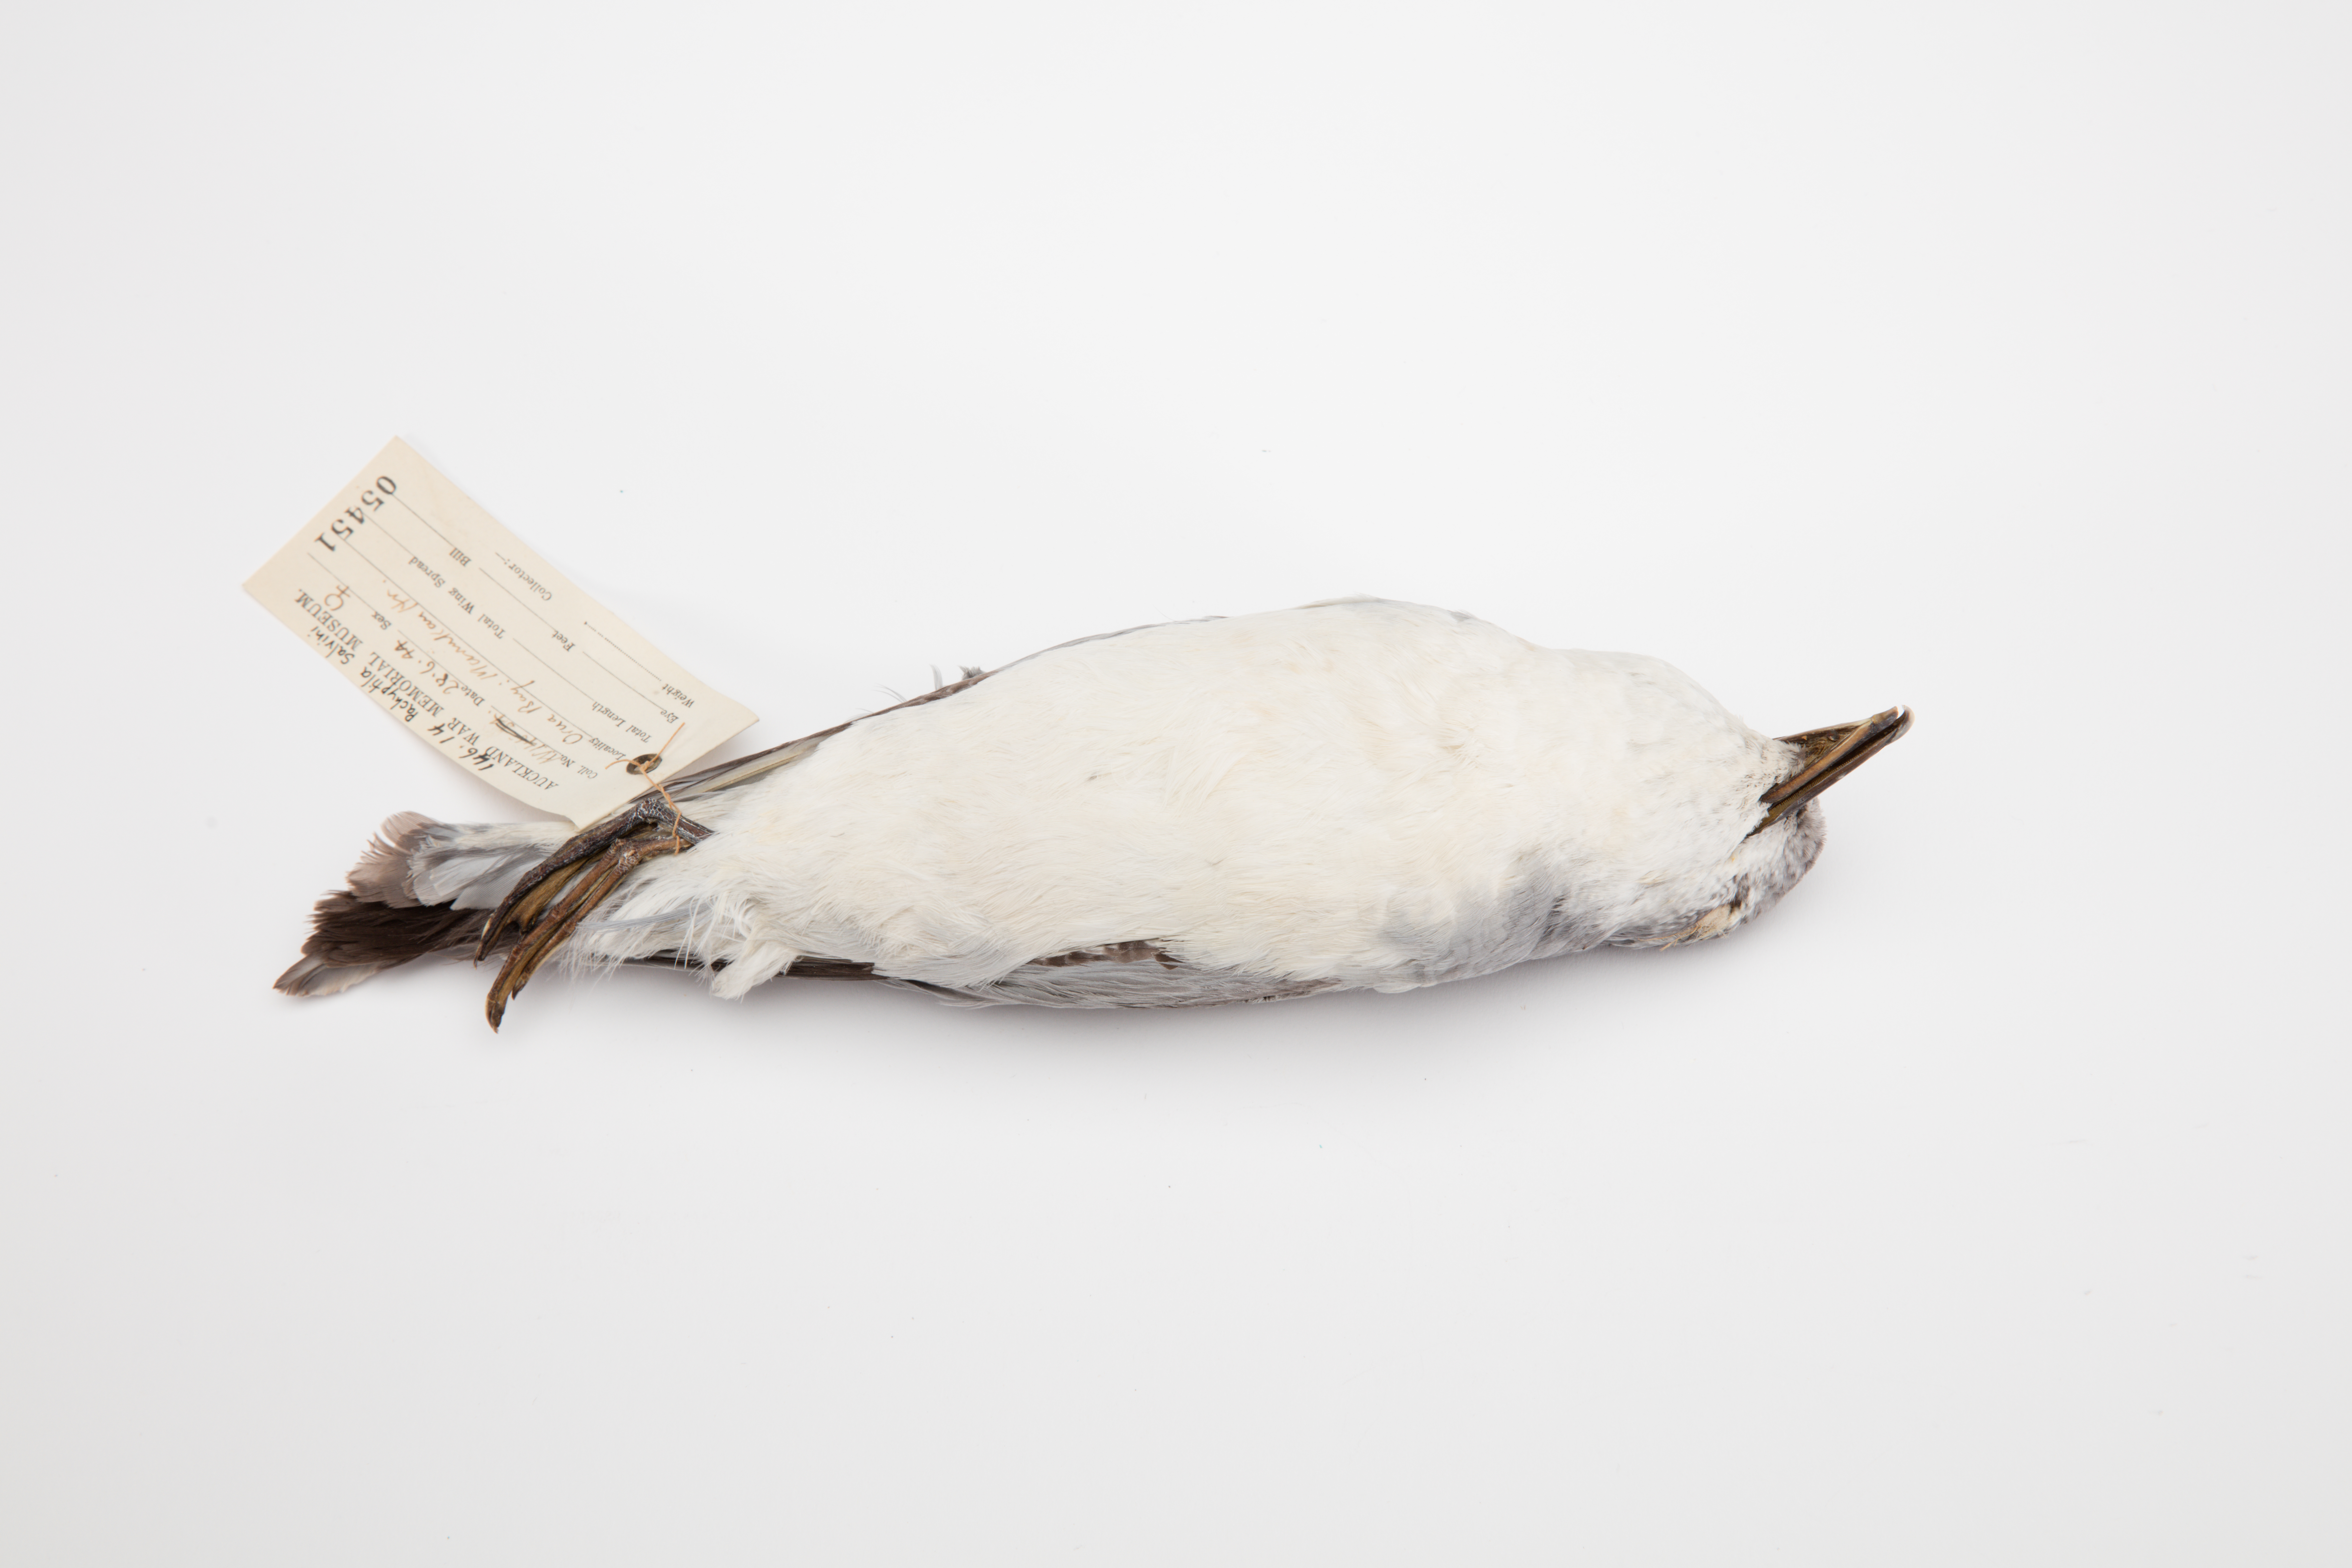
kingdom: Animalia
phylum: Chordata
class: Aves
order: Procellariiformes
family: Procellariidae
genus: Pachyptila
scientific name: Pachyptila salvini
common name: Salvin's prion
